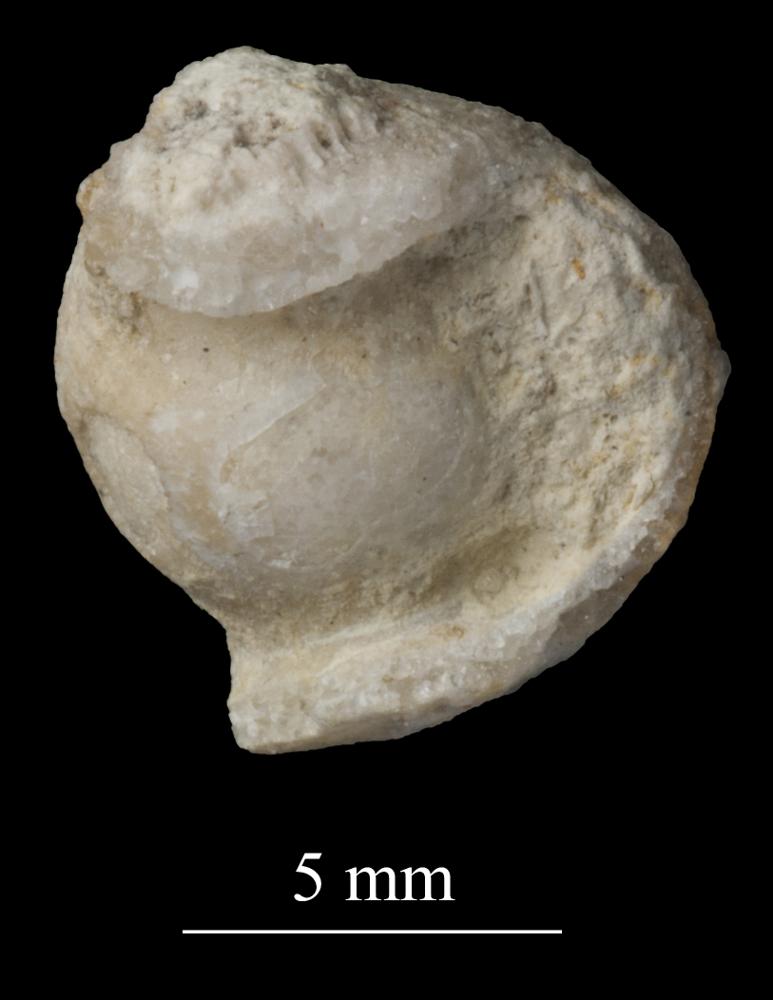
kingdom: Animalia
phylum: Mollusca
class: Gastropoda
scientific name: Gastropoda
